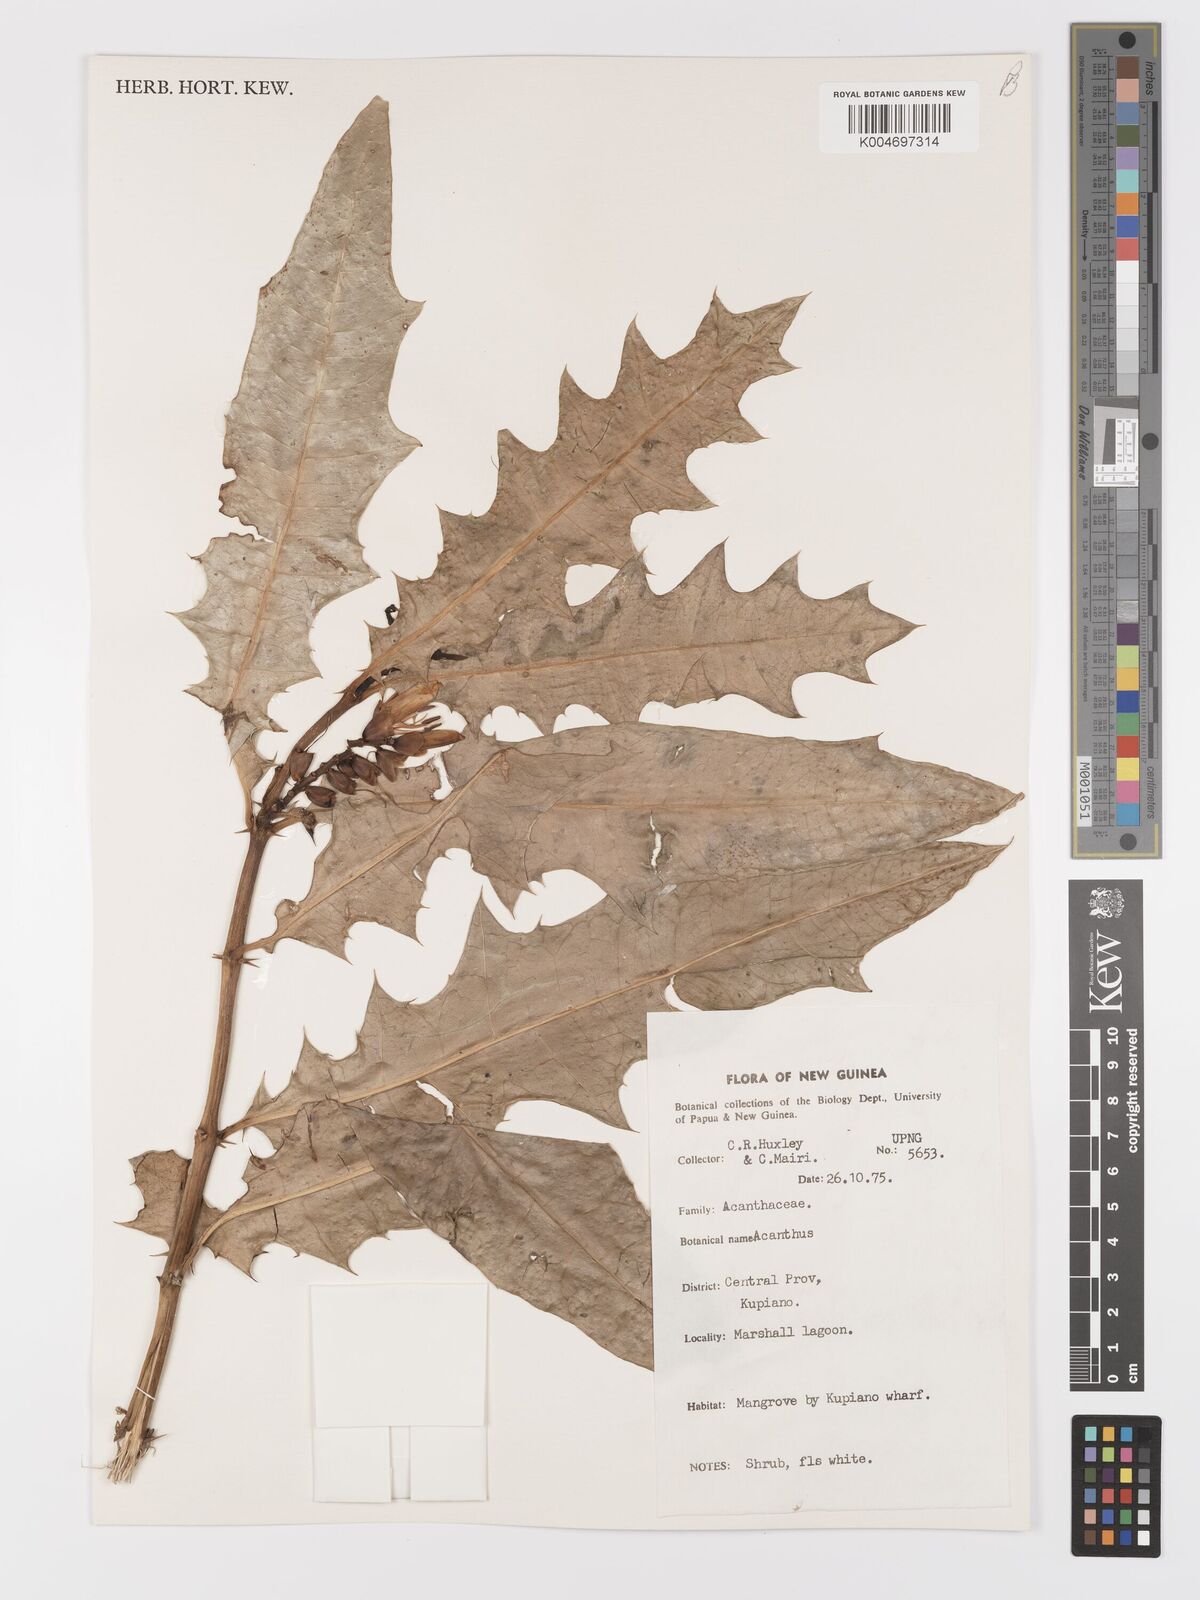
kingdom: Plantae
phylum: Tracheophyta
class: Magnoliopsida
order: Lamiales
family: Acanthaceae
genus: Acanthus
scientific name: Acanthus
